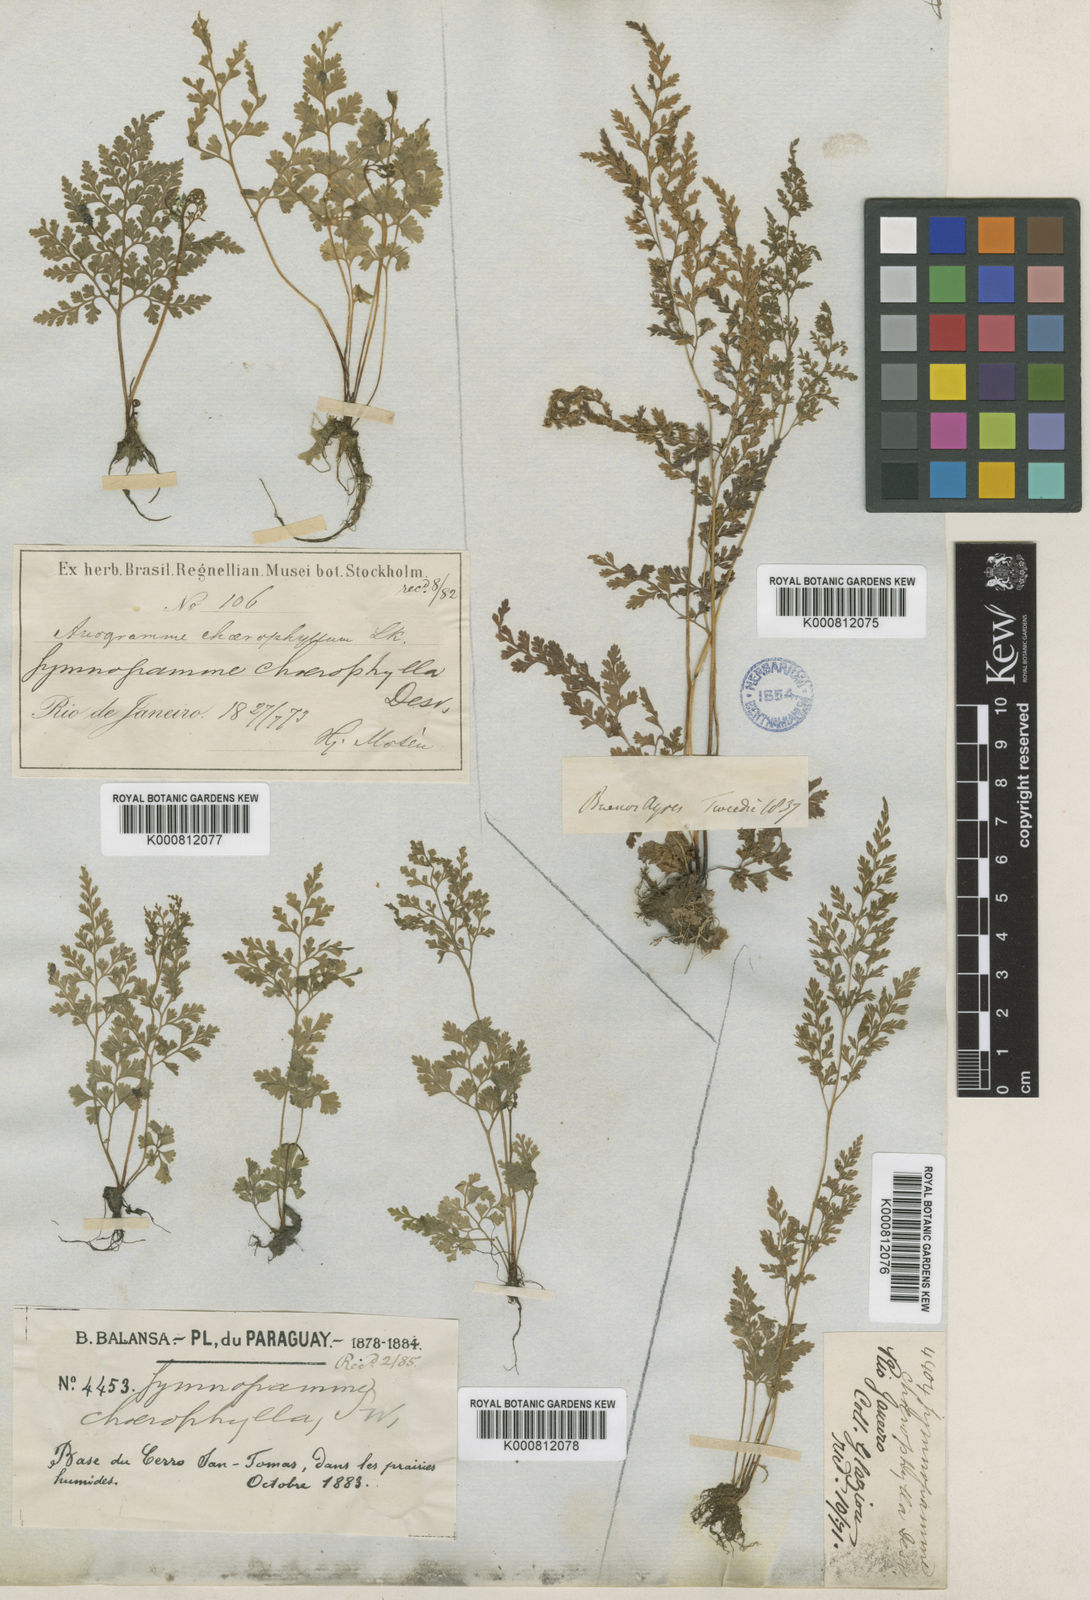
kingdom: Plantae
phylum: Tracheophyta
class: Polypodiopsida
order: Polypodiales
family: Pteridaceae
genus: Gastoniella
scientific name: Gastoniella chaerophylla
